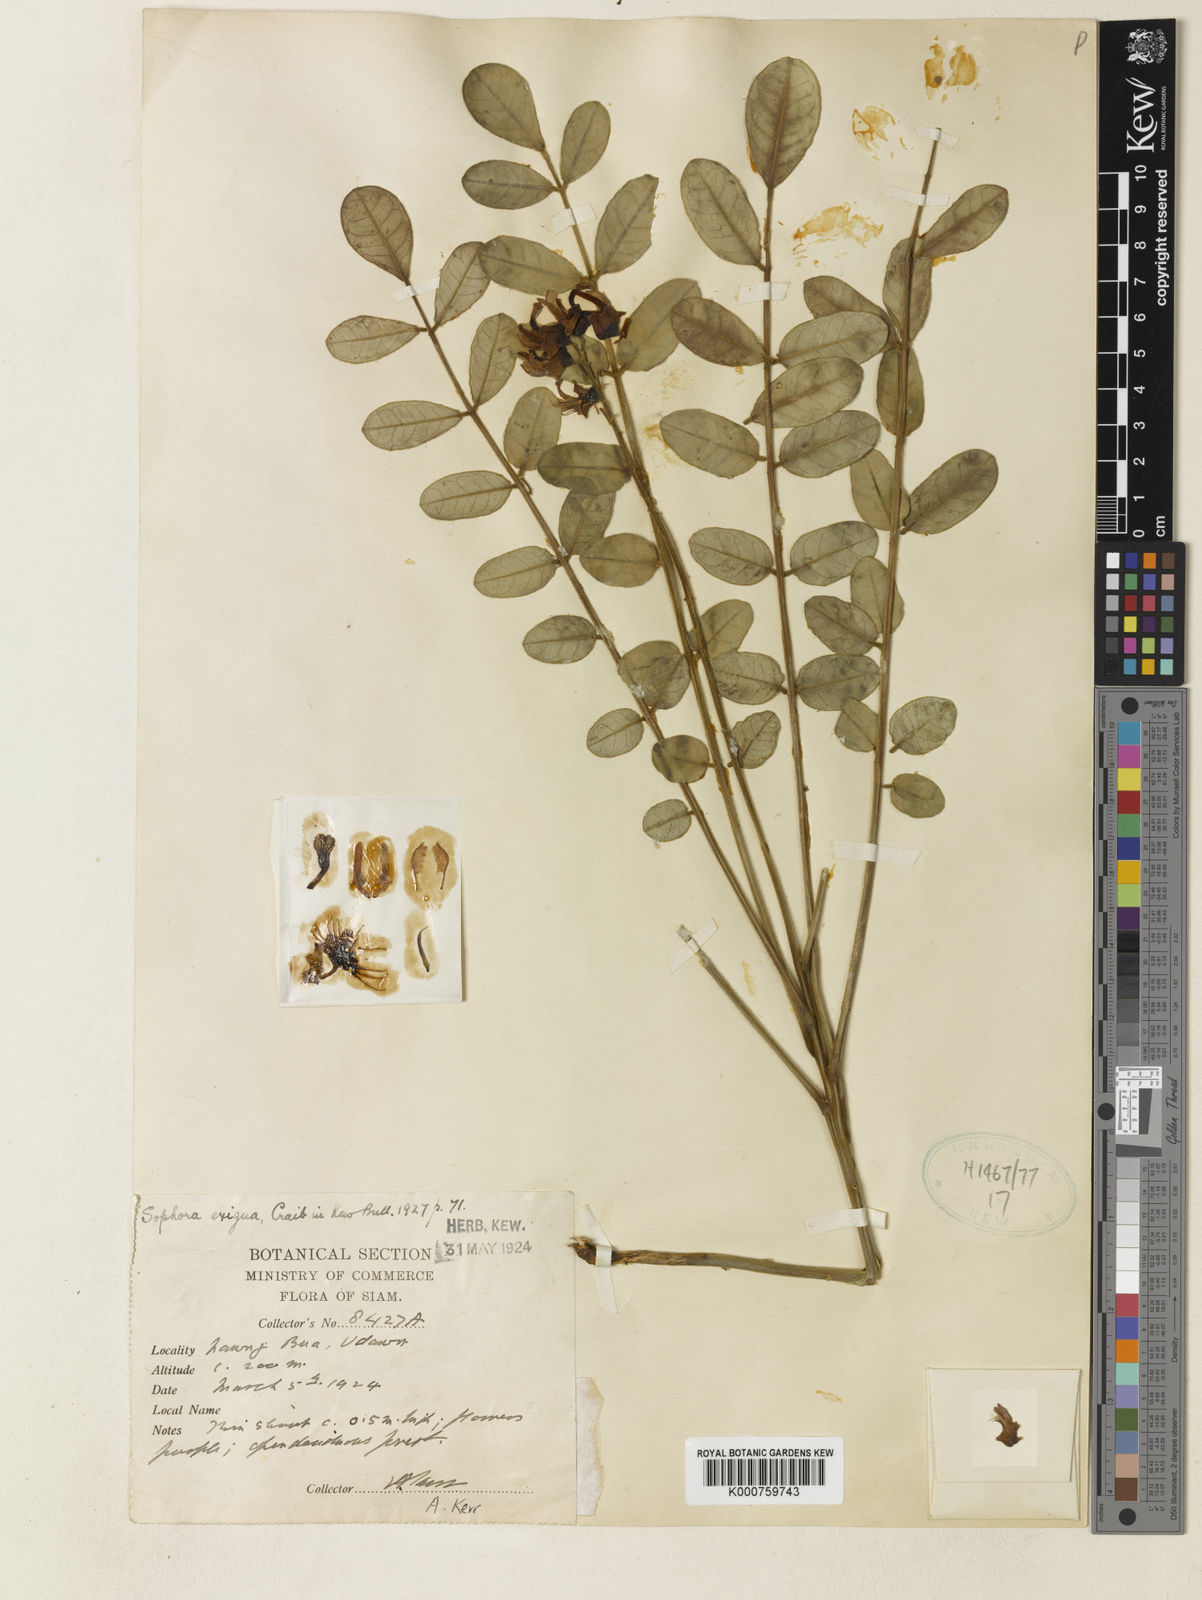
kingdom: Plantae
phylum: Tracheophyta
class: Magnoliopsida
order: Fabales
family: Fabaceae
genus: Sophora
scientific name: Sophora exigua
